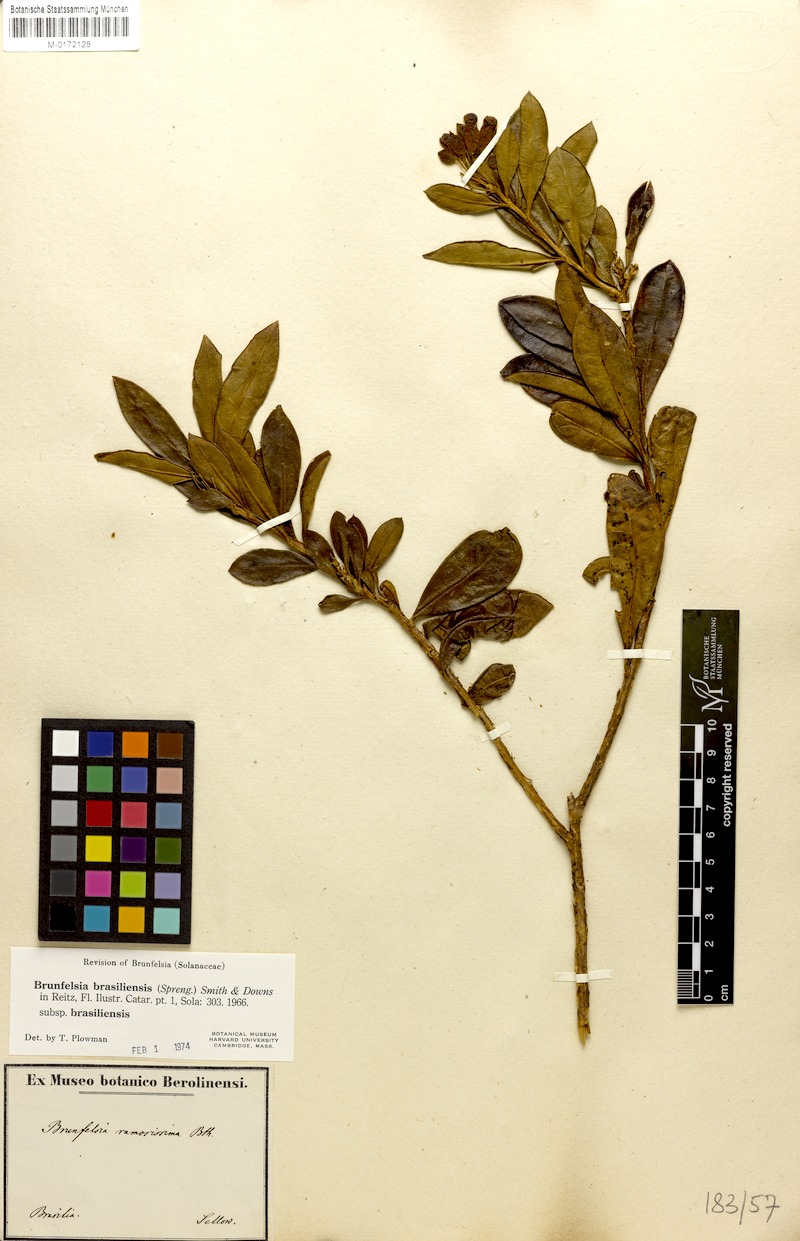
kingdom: Plantae
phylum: Tracheophyta
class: Magnoliopsida
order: Solanales
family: Solanaceae
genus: Brunfelsia
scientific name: Brunfelsia brasiliensis
